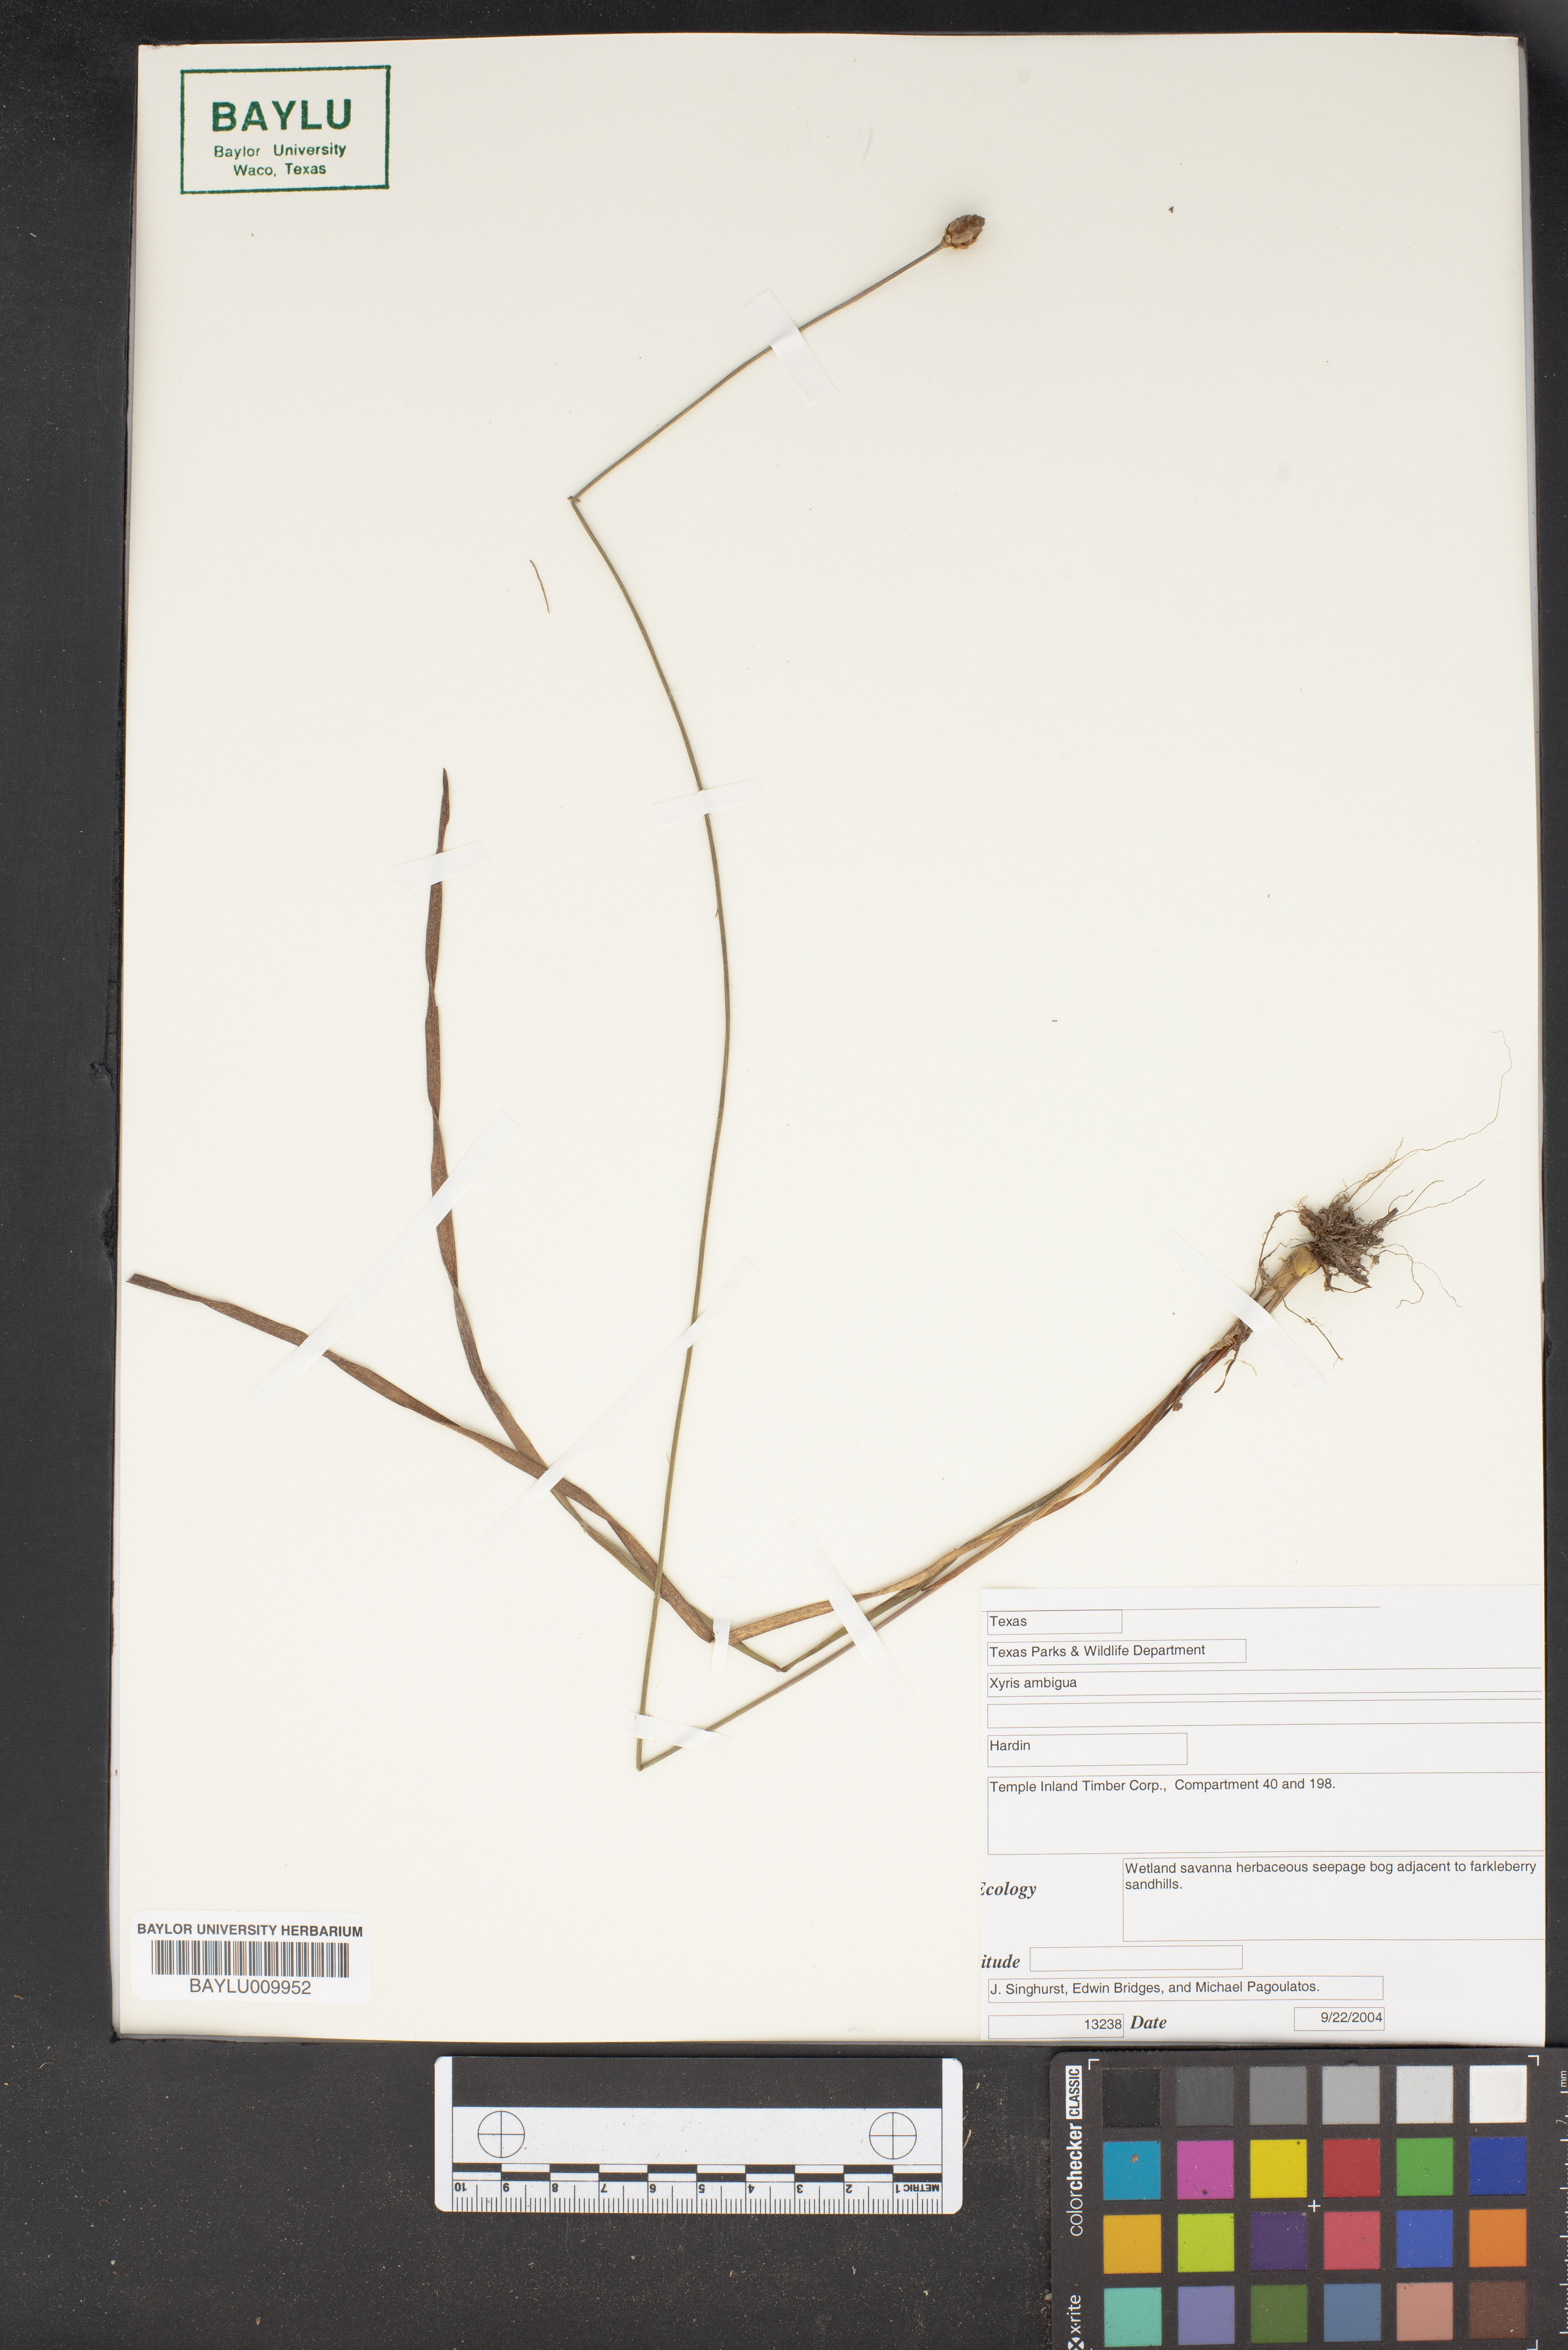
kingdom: Plantae
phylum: Tracheophyta
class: Liliopsida
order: Poales
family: Xyridaceae
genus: Xyris
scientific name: Xyris ambigua
